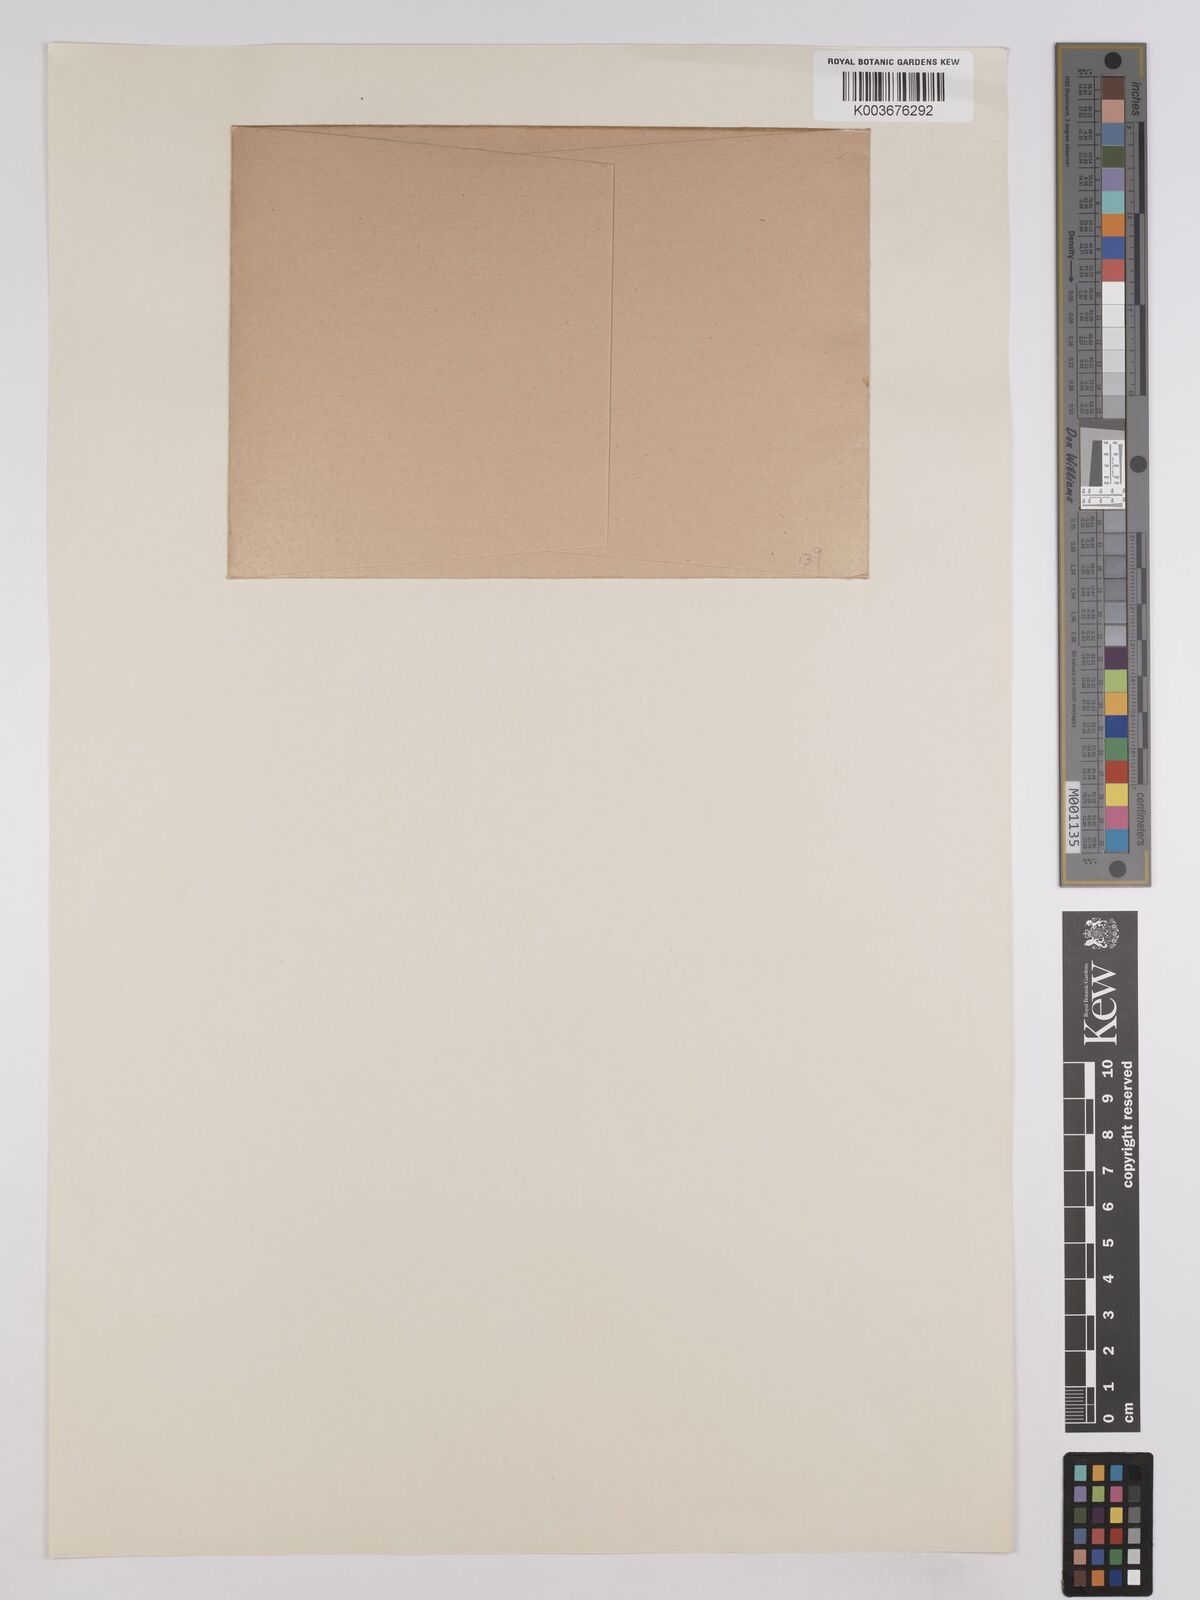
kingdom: Plantae
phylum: Tracheophyta
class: Magnoliopsida
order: Fabales
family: Fabaceae
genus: Hosackia
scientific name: Hosackia
